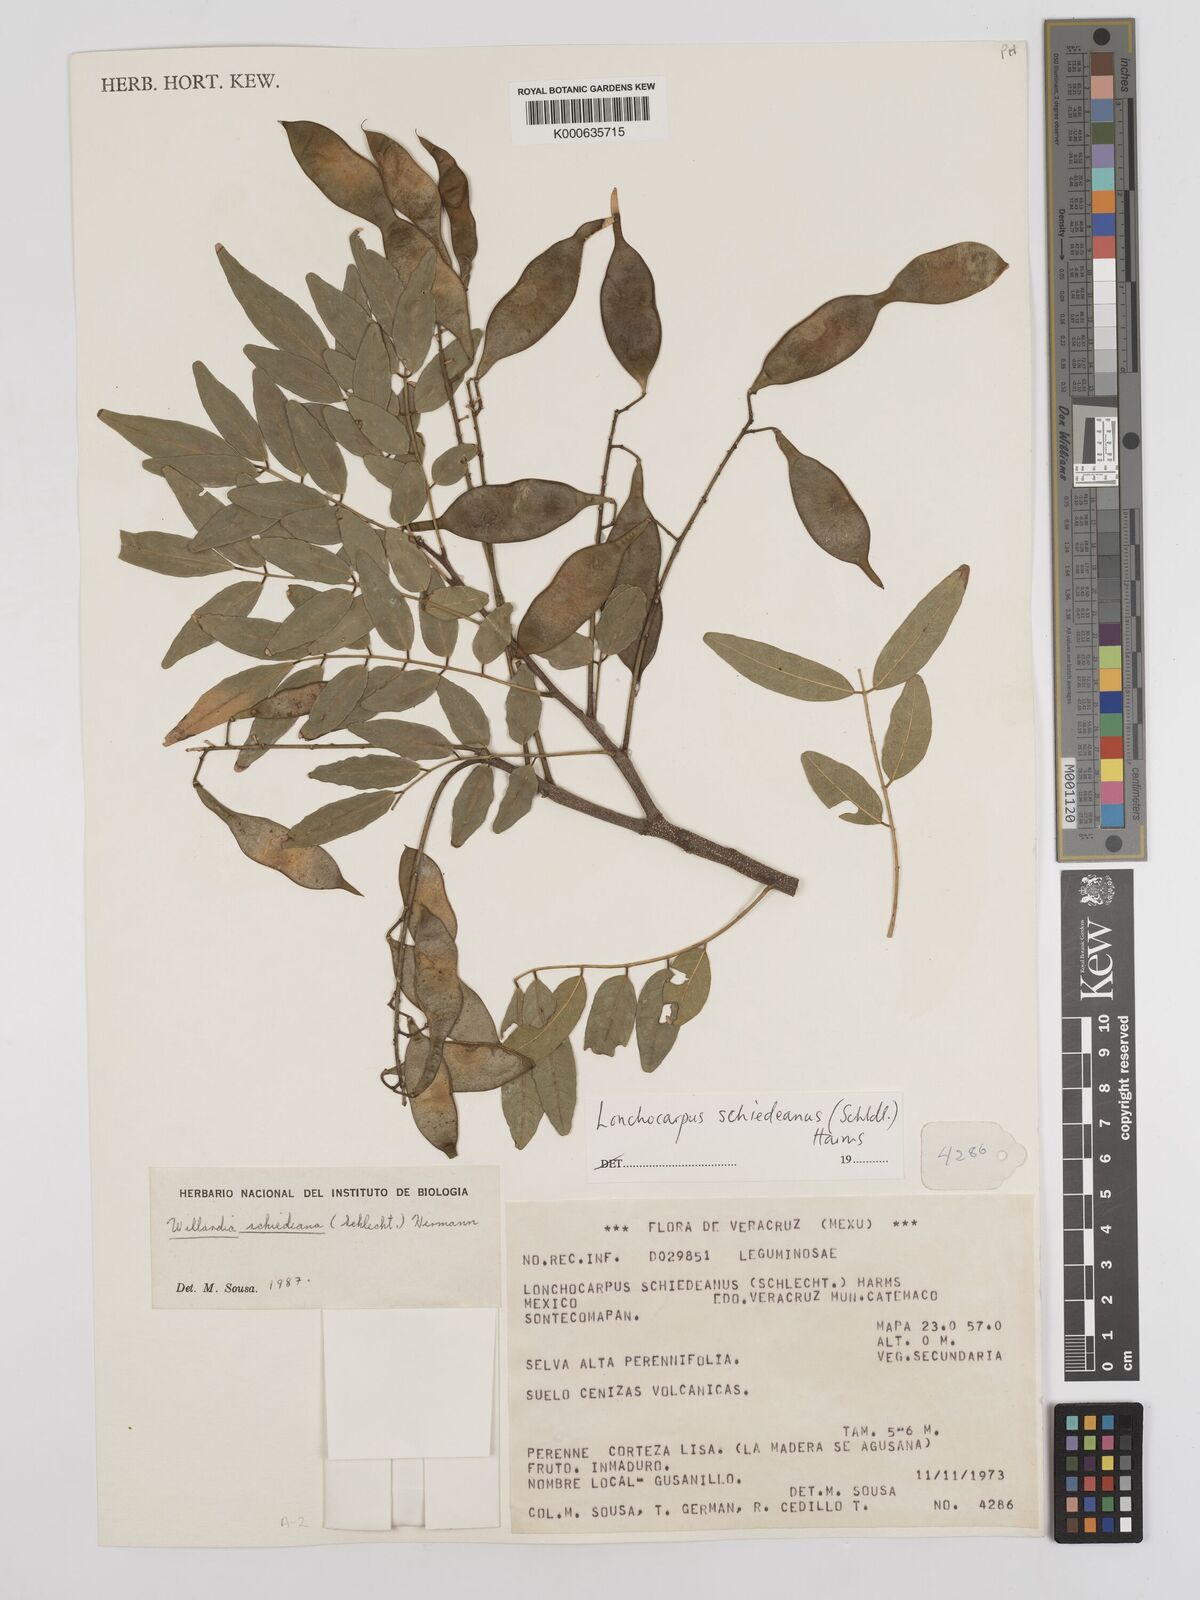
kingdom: Plantae
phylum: Tracheophyta
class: Magnoliopsida
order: Fabales
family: Fabaceae
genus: Lonchocarpus
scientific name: Lonchocarpus schiedeanus
